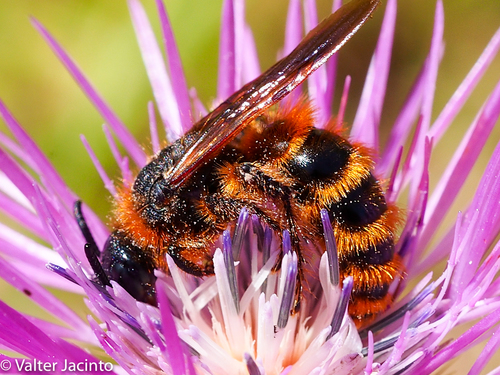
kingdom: Animalia
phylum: Arthropoda
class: Insecta
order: Hymenoptera
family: Scoliidae
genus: Dasyscolia
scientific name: Dasyscolia ciliata
